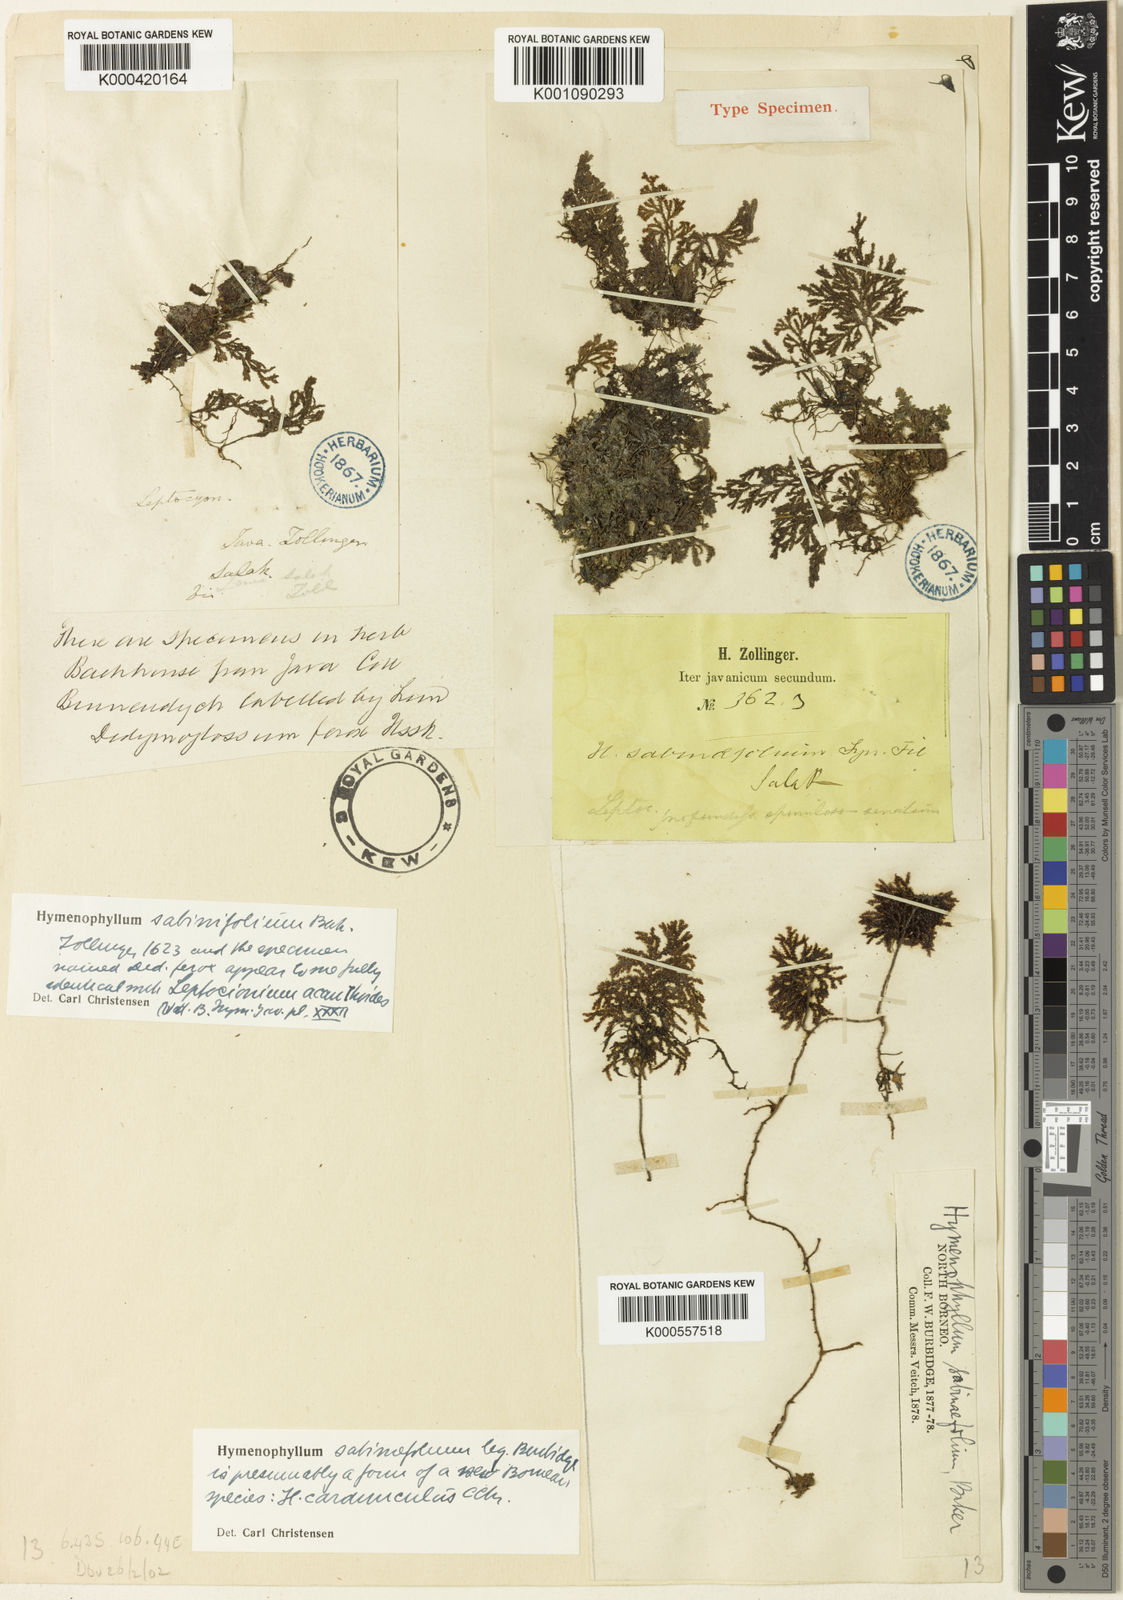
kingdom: Plantae
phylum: Tracheophyta
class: Polypodiopsida
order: Hymenophyllales
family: Hymenophyllaceae
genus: Hymenophyllum
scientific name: Hymenophyllum sabinifolium
